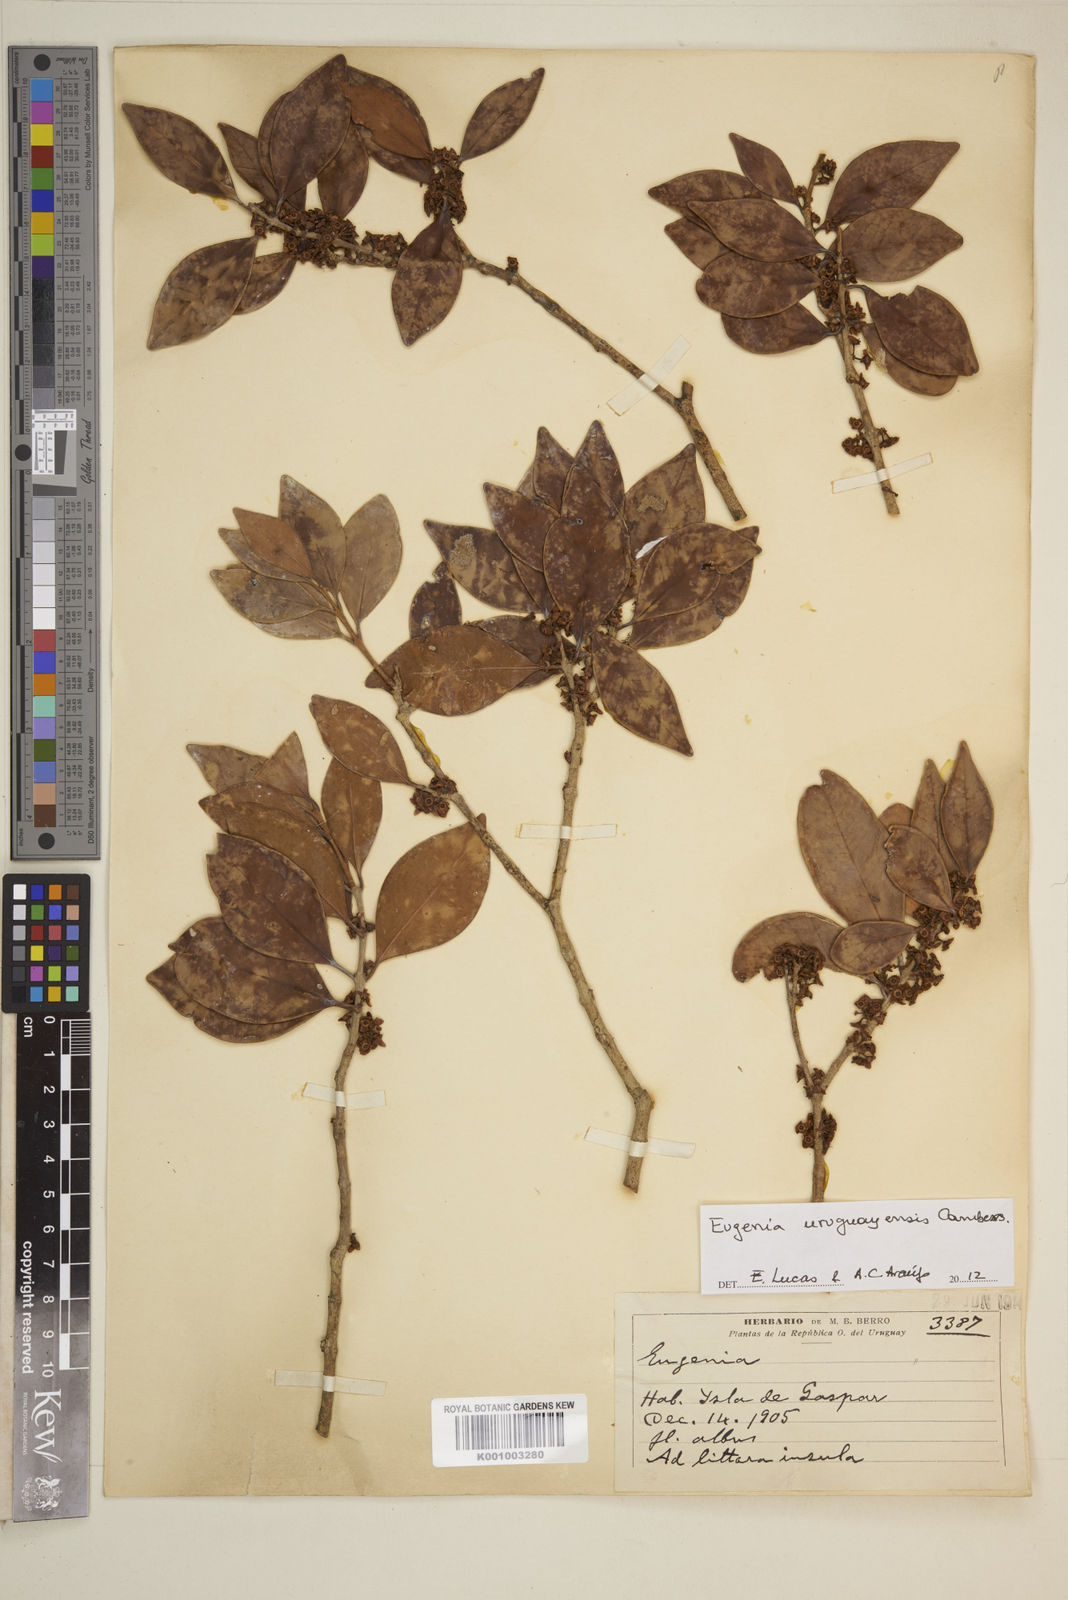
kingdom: Plantae
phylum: Tracheophyta
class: Magnoliopsida
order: Myrtales
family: Myrtaceae
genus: Eugenia
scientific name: Eugenia
